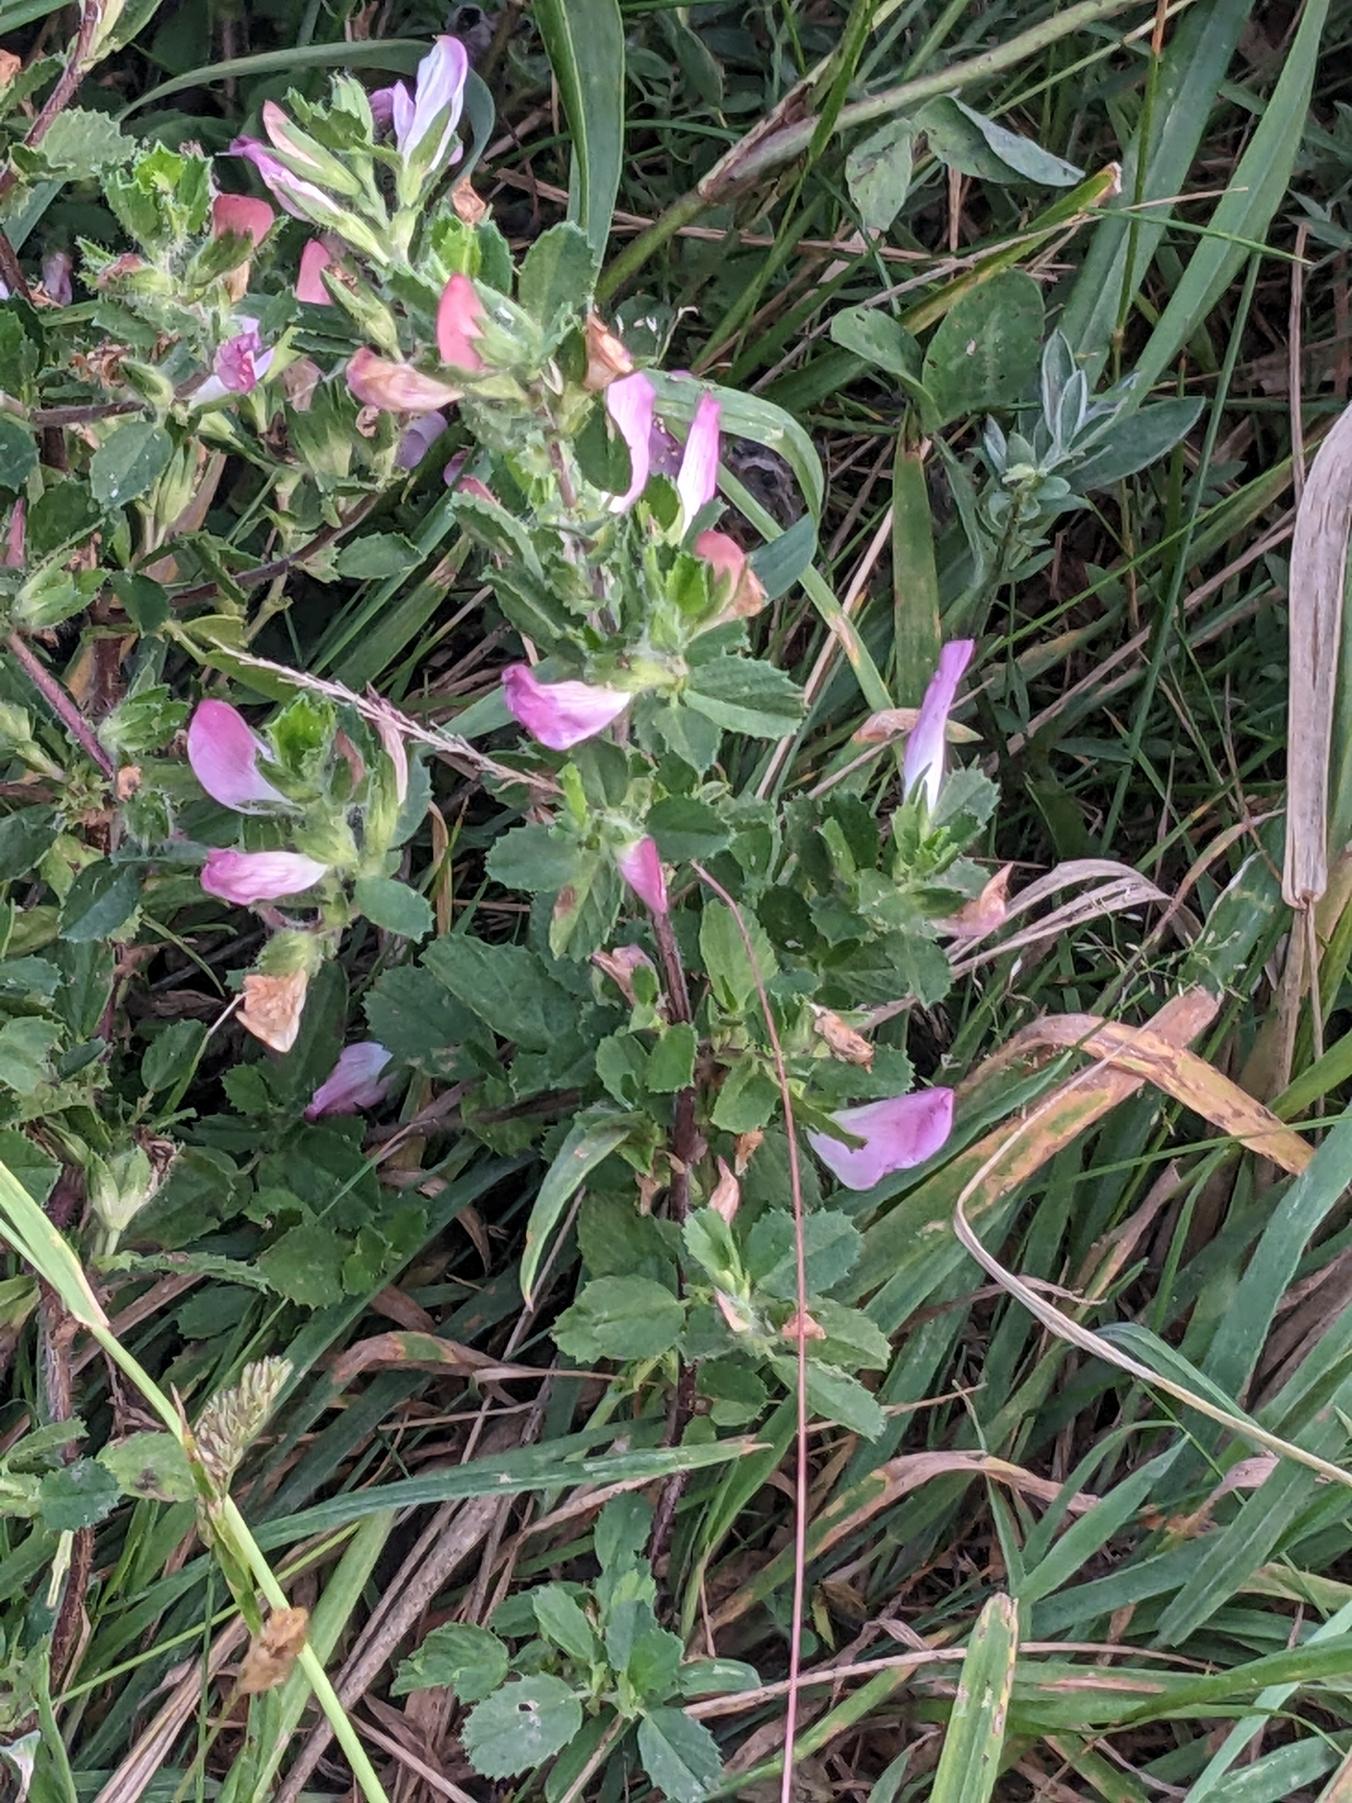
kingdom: Plantae
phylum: Tracheophyta
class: Magnoliopsida
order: Fabales
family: Fabaceae
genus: Ononis
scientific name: Ononis spinosa
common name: Mark-krageklo
